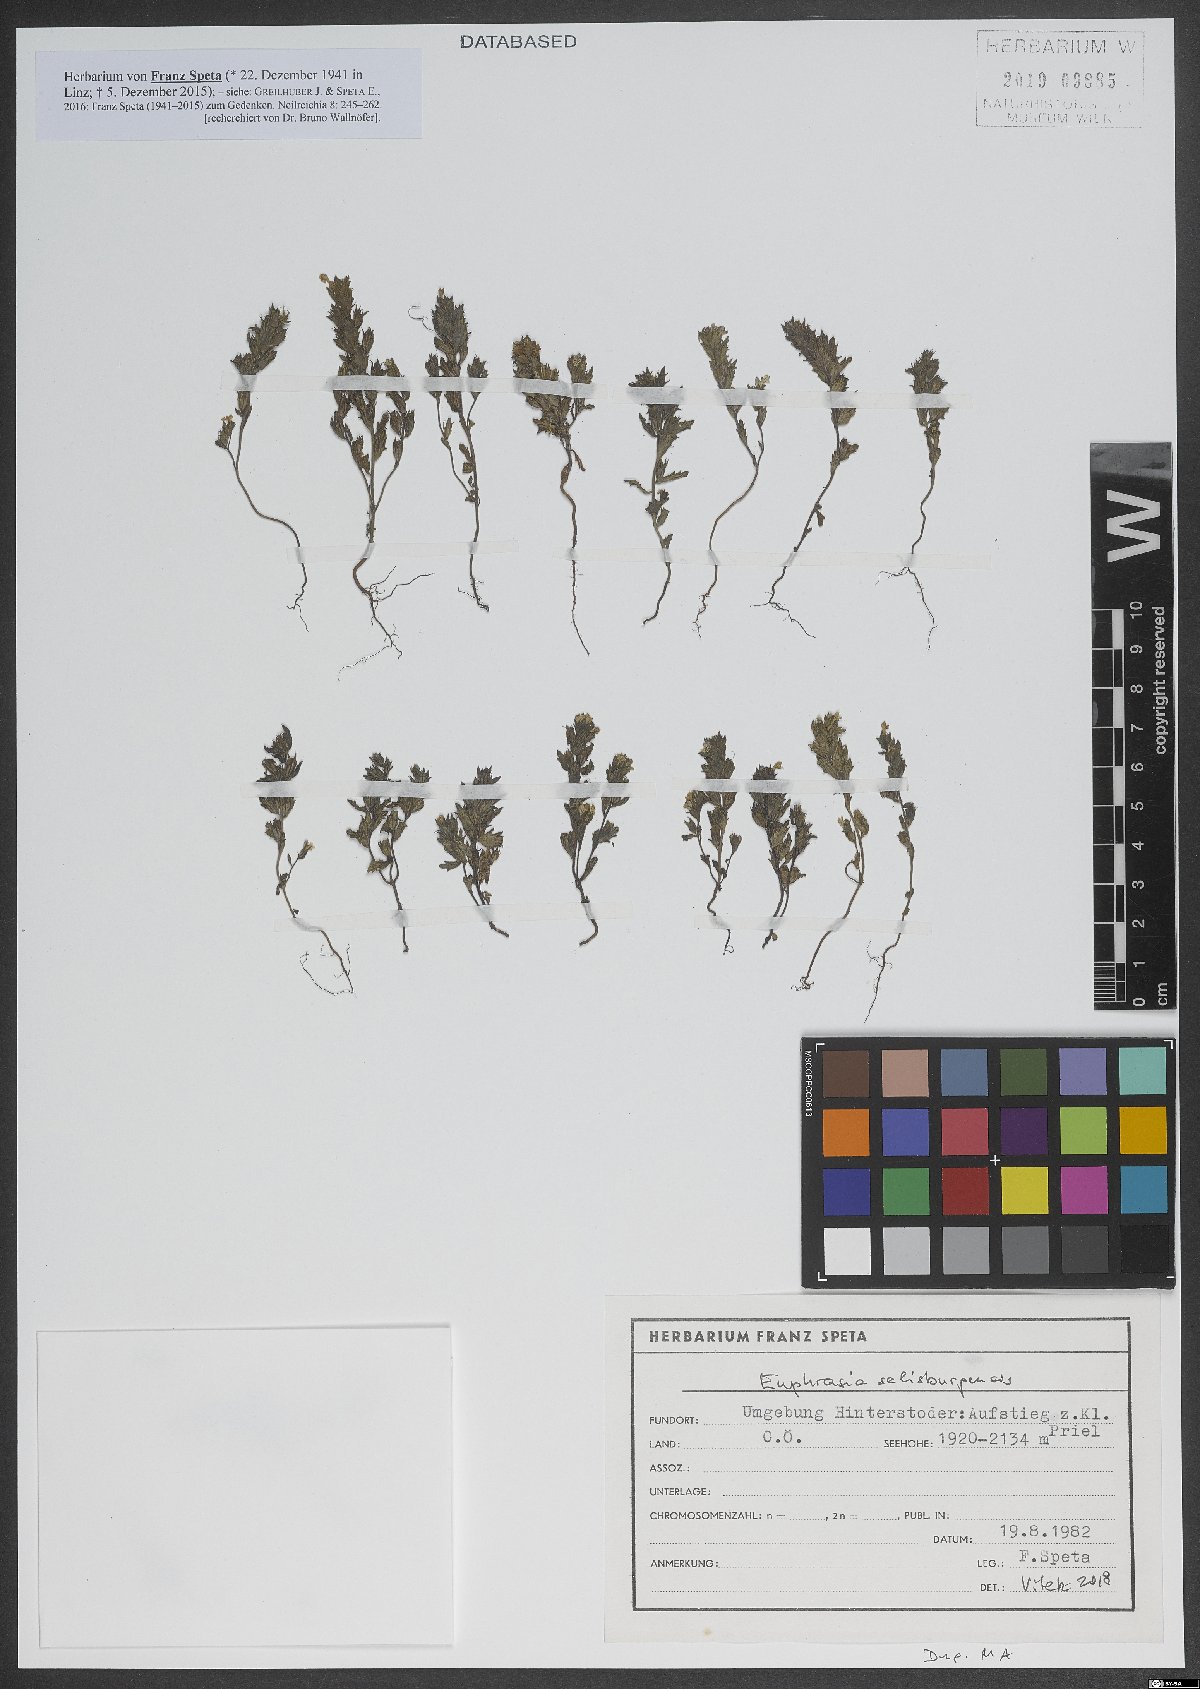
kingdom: Plantae
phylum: Tracheophyta
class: Magnoliopsida
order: Lamiales
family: Orobanchaceae
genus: Euphrasia
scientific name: Euphrasia salisburgensis
